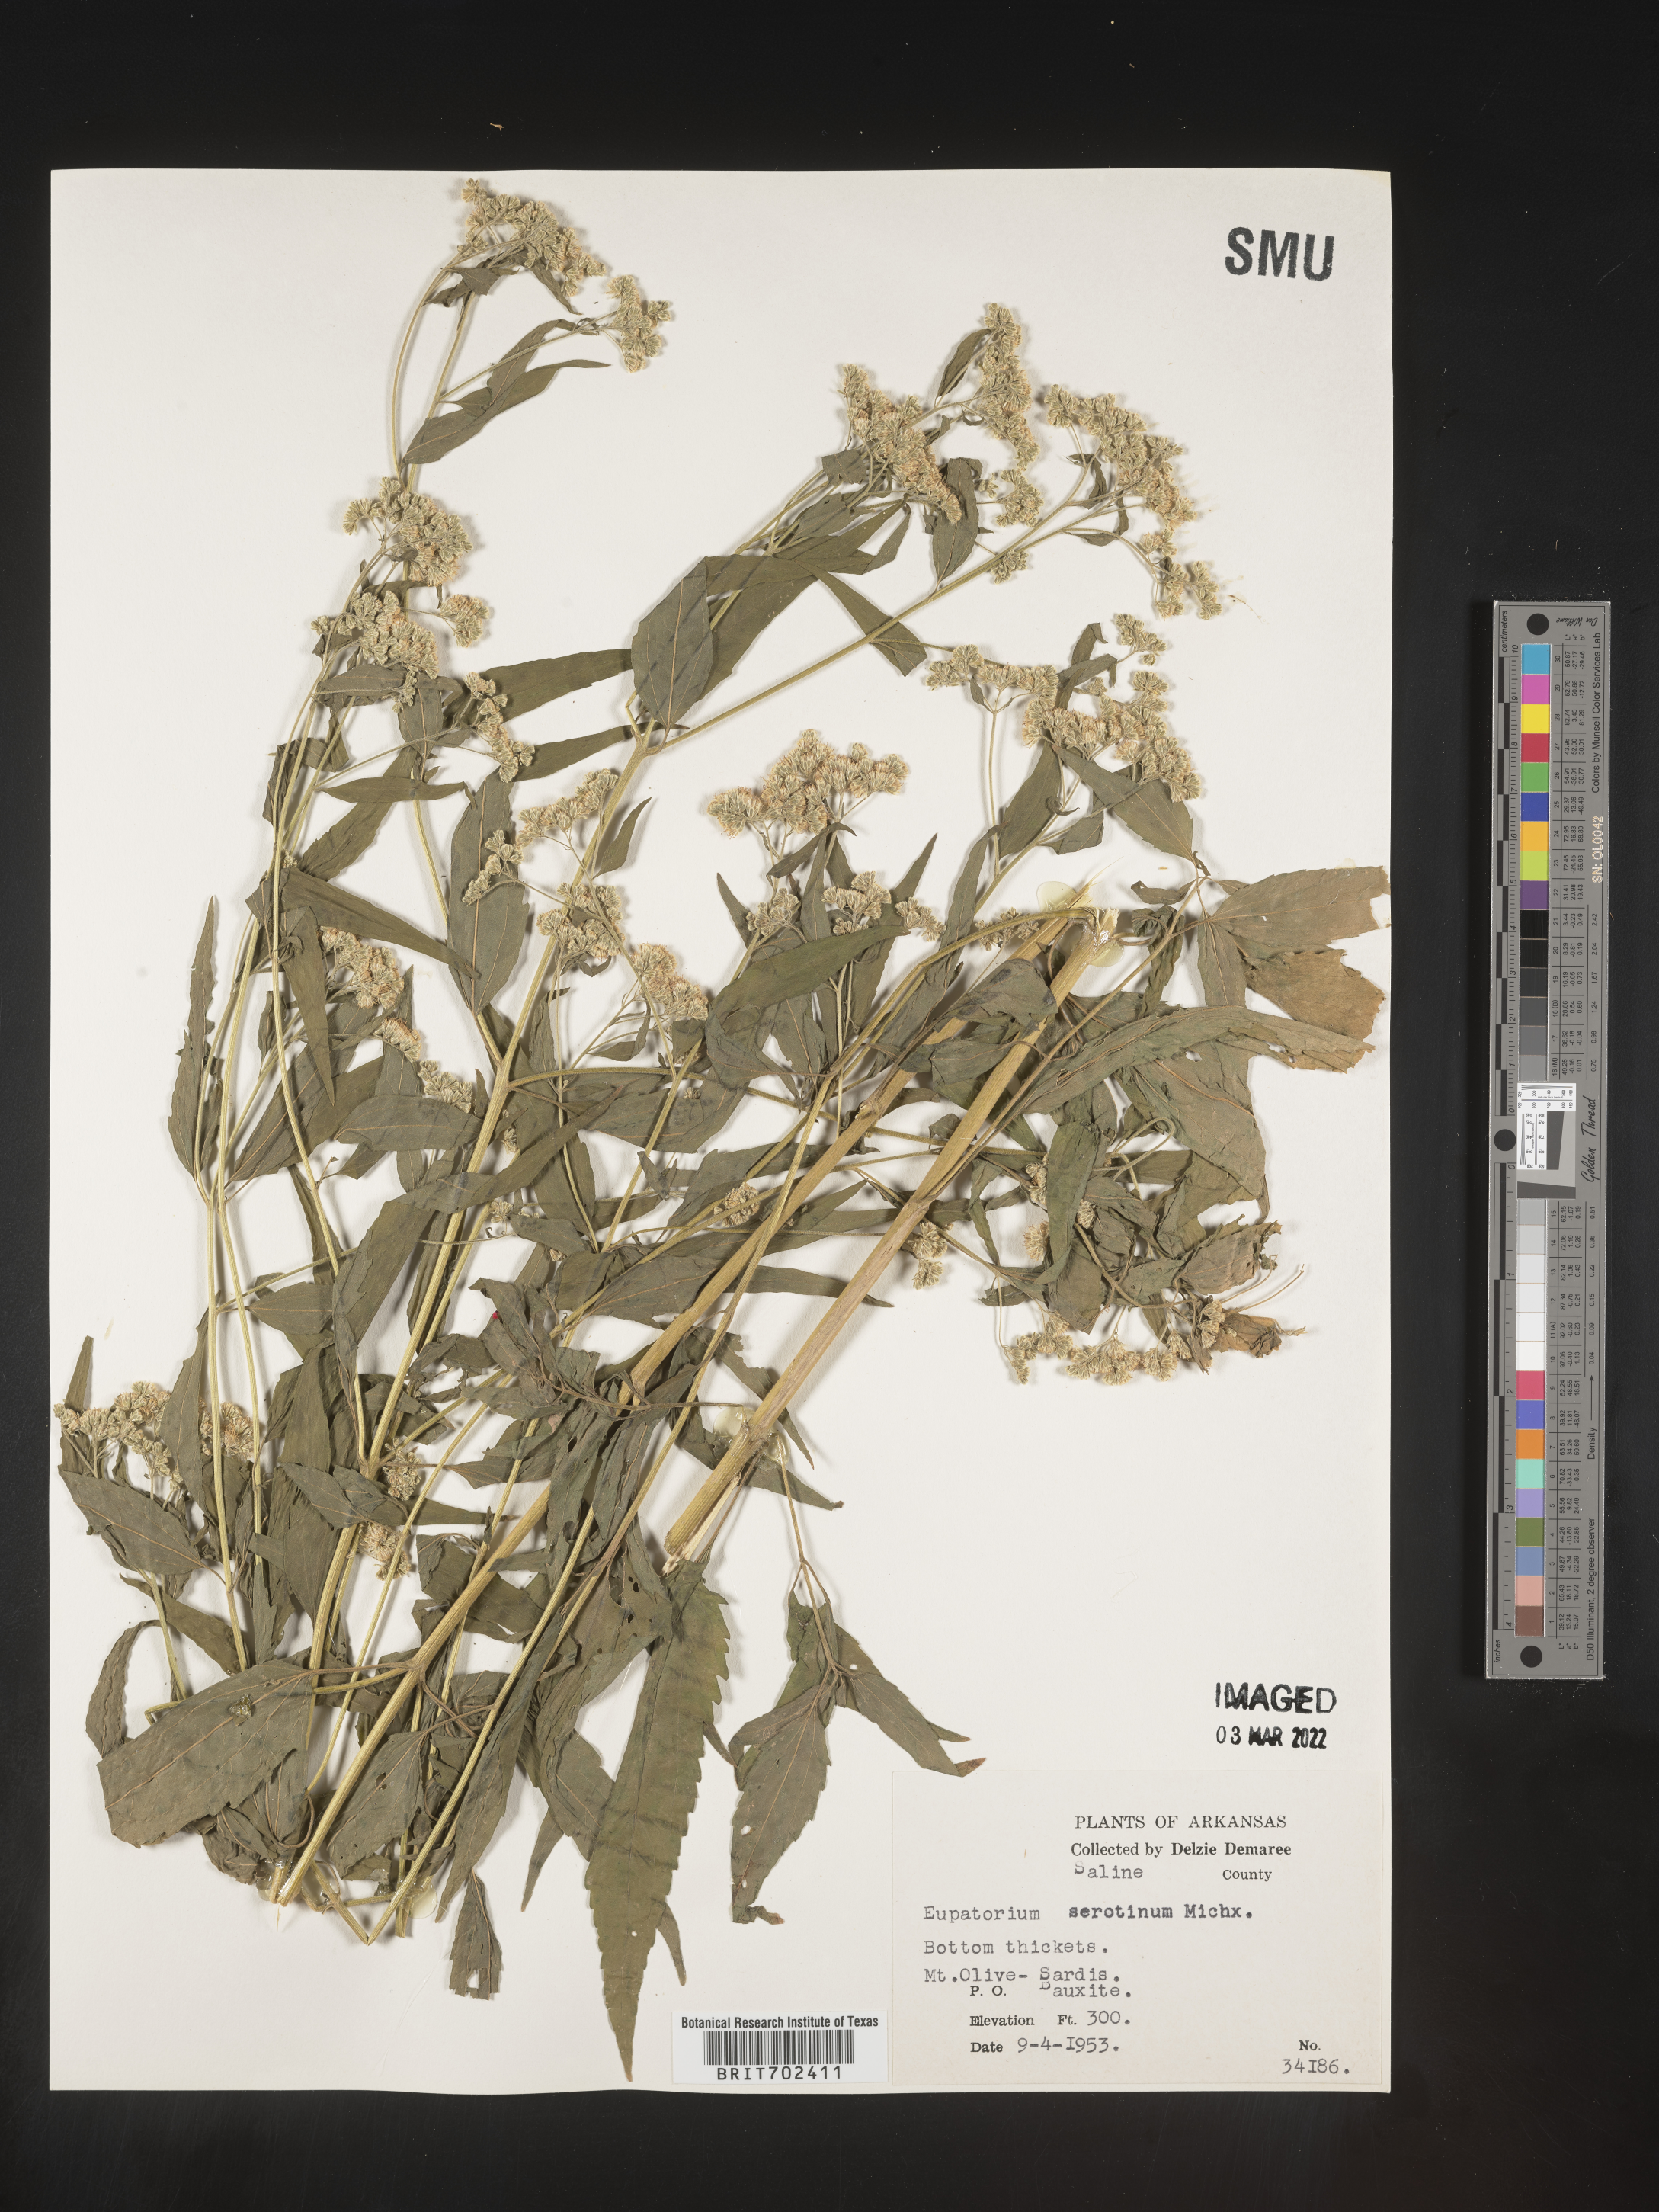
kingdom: Plantae
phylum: Tracheophyta
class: Magnoliopsida
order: Asterales
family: Asteraceae
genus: Eupatorium
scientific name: Eupatorium serotinum
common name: Late boneset
